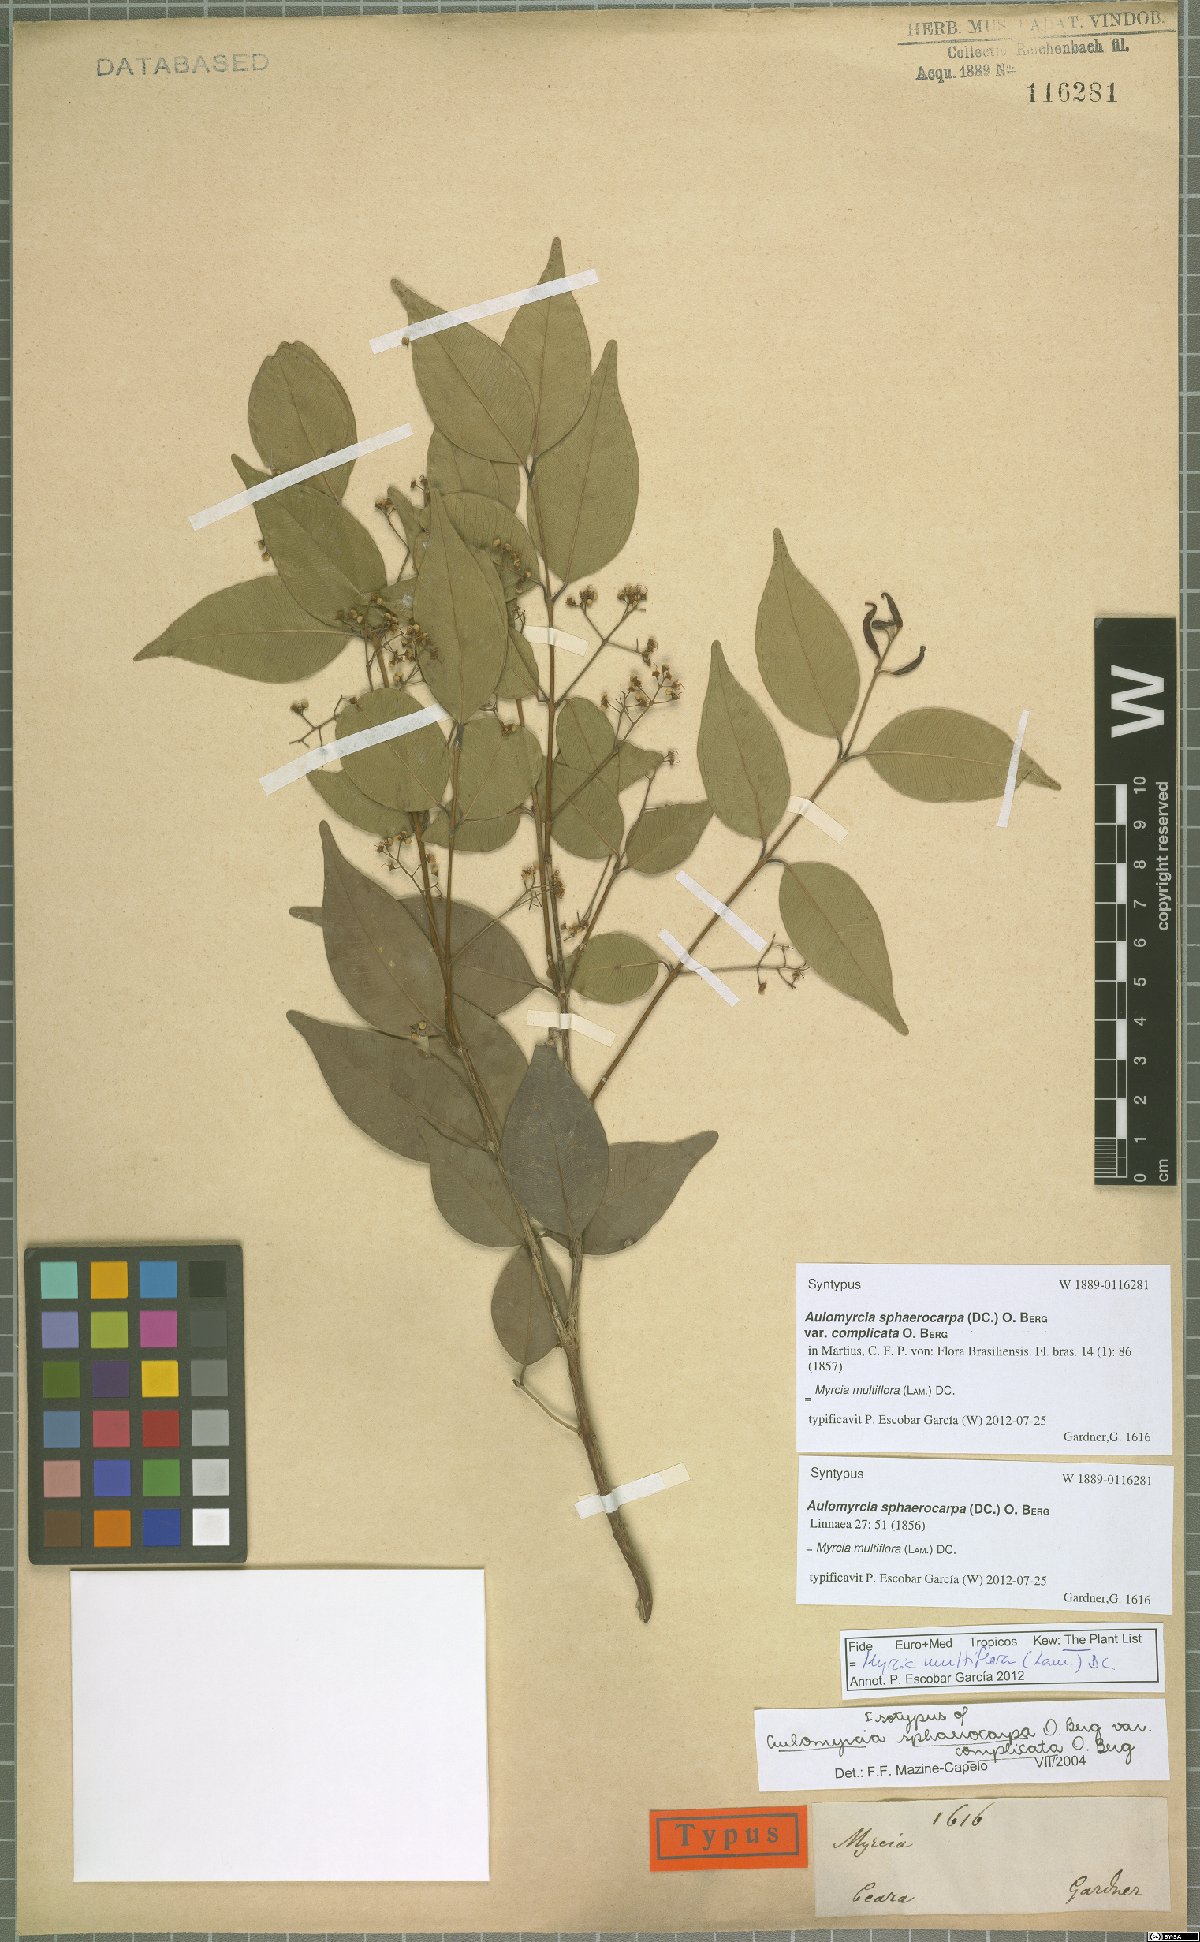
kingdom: Plantae
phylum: Tracheophyta
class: Magnoliopsida
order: Myrtales
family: Myrtaceae
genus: Myrcia
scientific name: Myrcia multiflora
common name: Pedra hume
